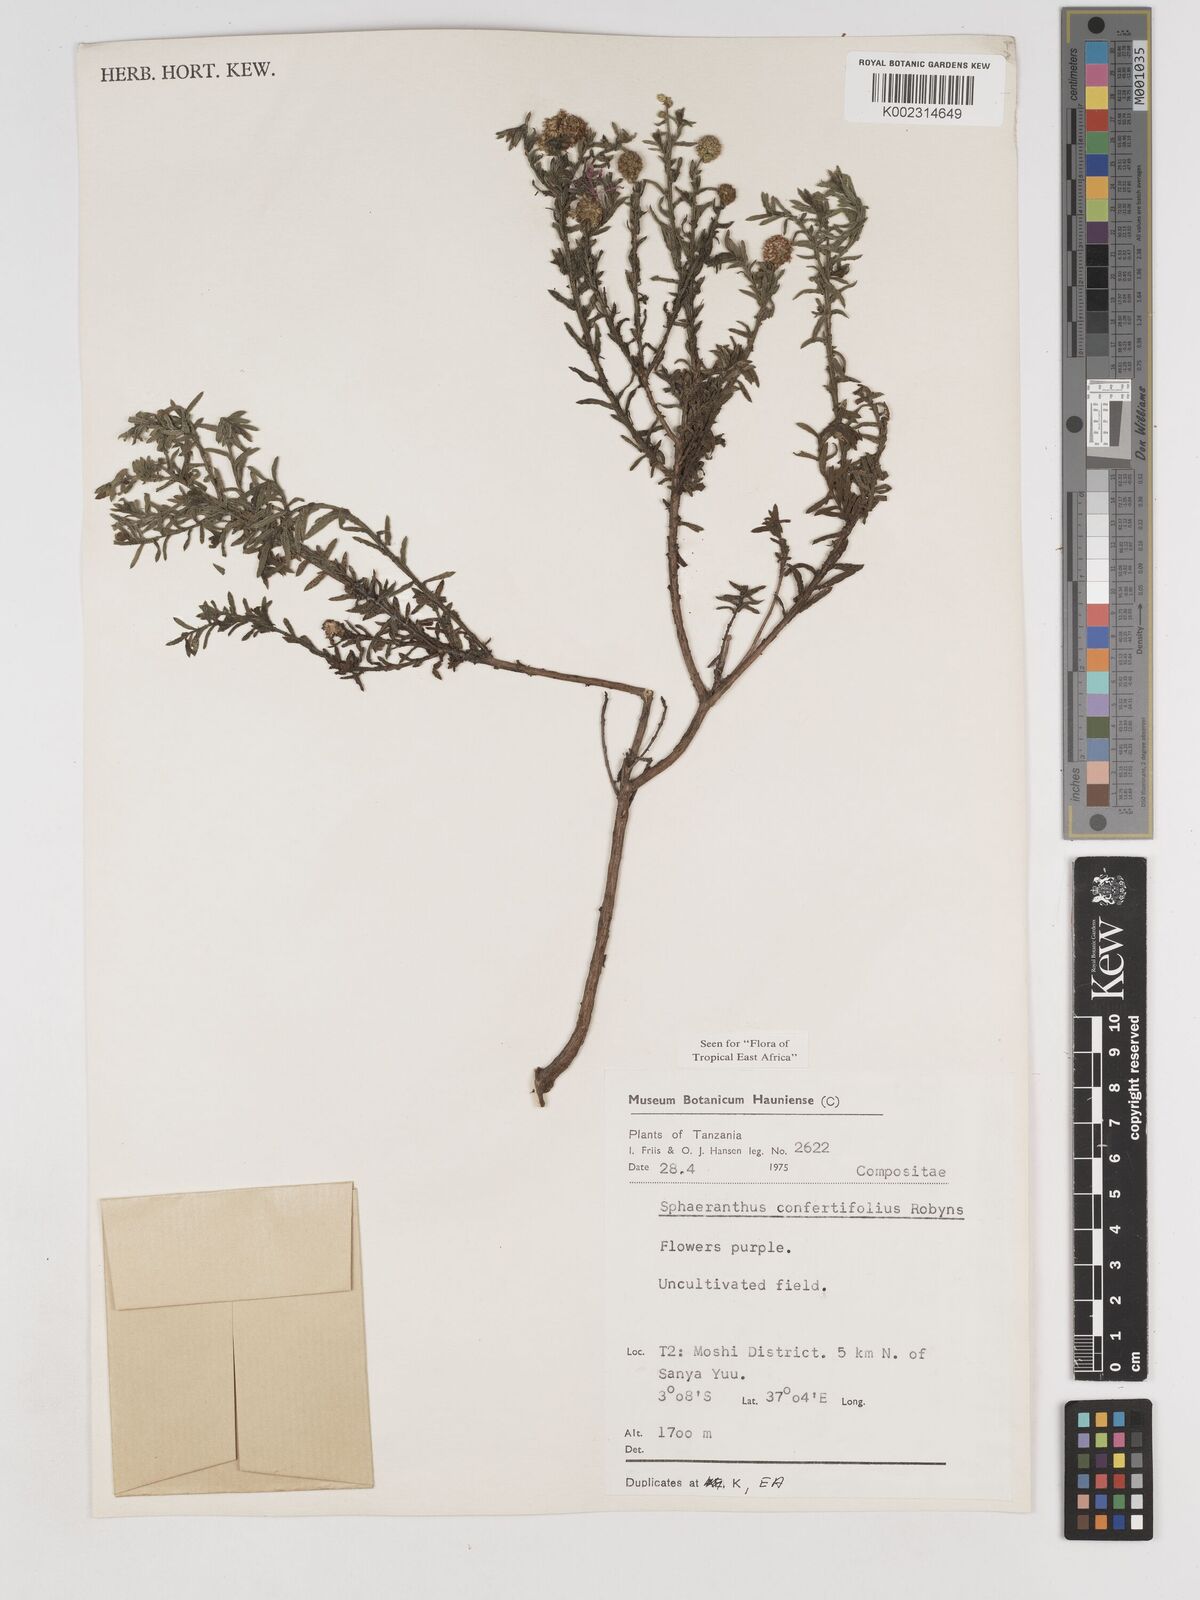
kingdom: Plantae
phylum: Tracheophyta
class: Magnoliopsida
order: Asterales
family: Asteraceae
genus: Sphaeranthus
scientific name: Sphaeranthus confertifolius
